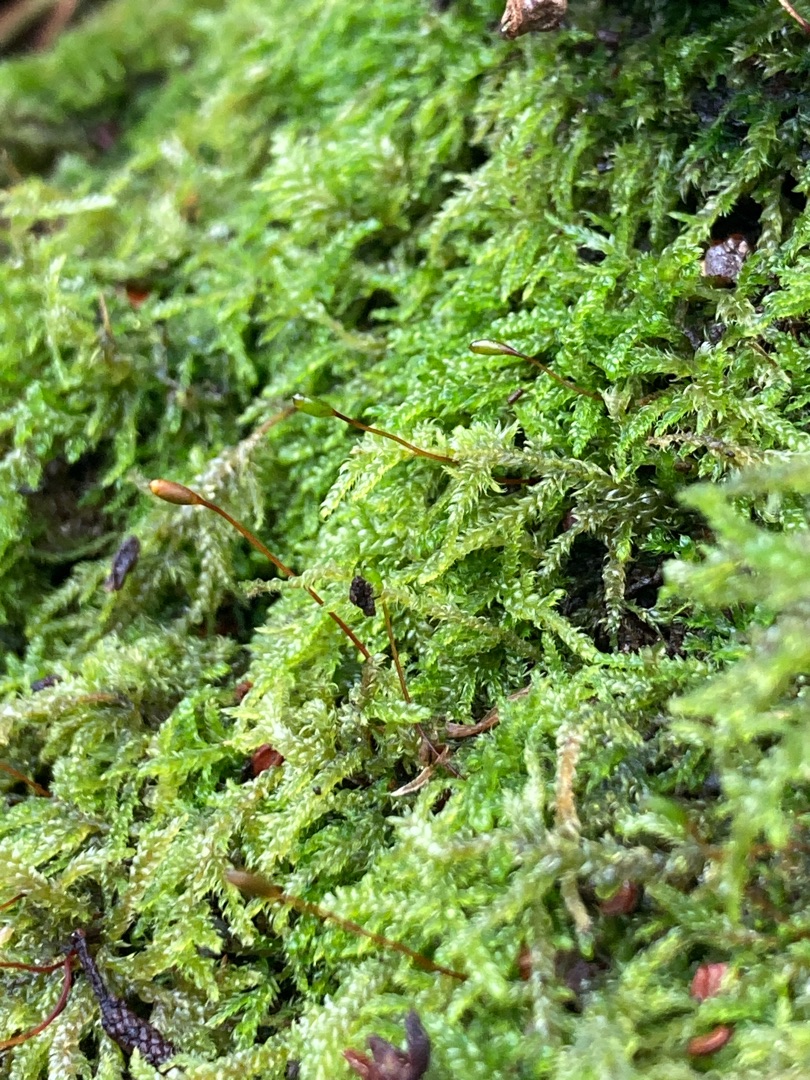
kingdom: Plantae
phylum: Bryophyta
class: Bryopsida
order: Hypnales
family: Hypnaceae
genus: Hypnum
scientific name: Hypnum andoi
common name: Vortet cypresmos
